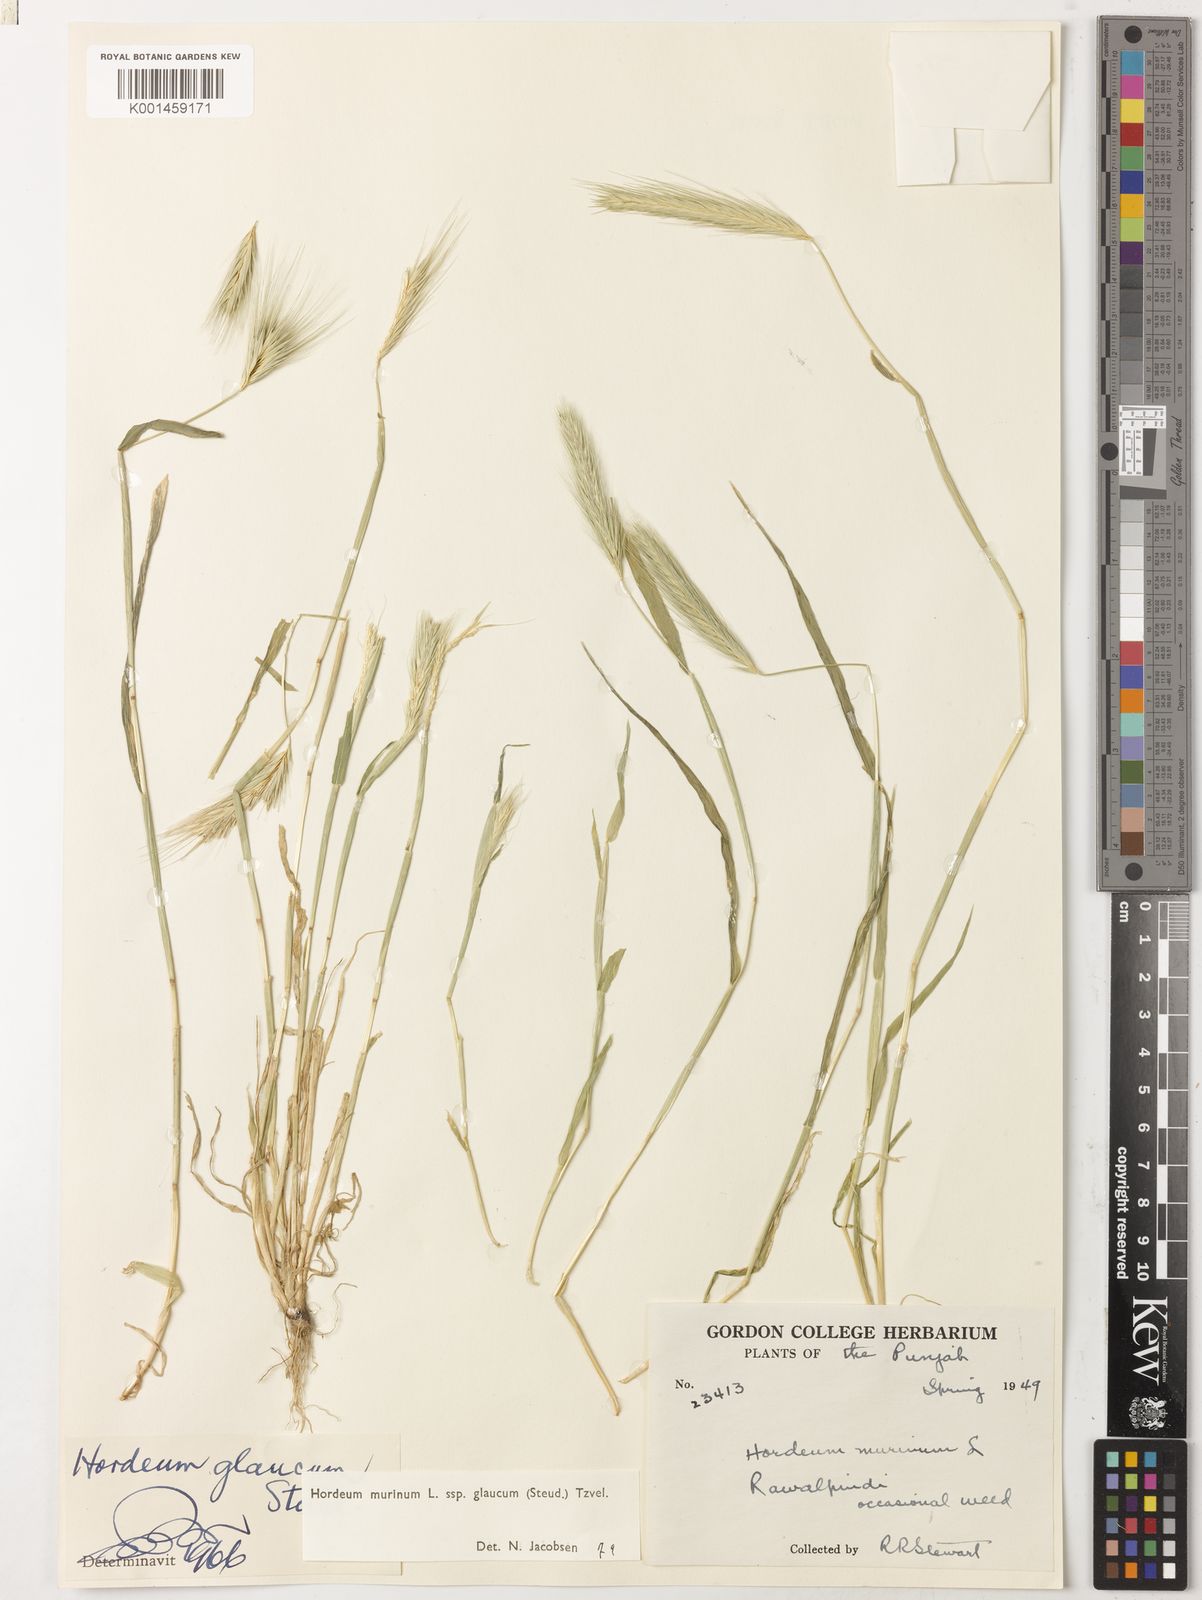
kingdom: Plantae
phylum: Tracheophyta
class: Liliopsida
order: Poales
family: Poaceae
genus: Hordeum
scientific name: Hordeum murinum
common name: Wall barley
